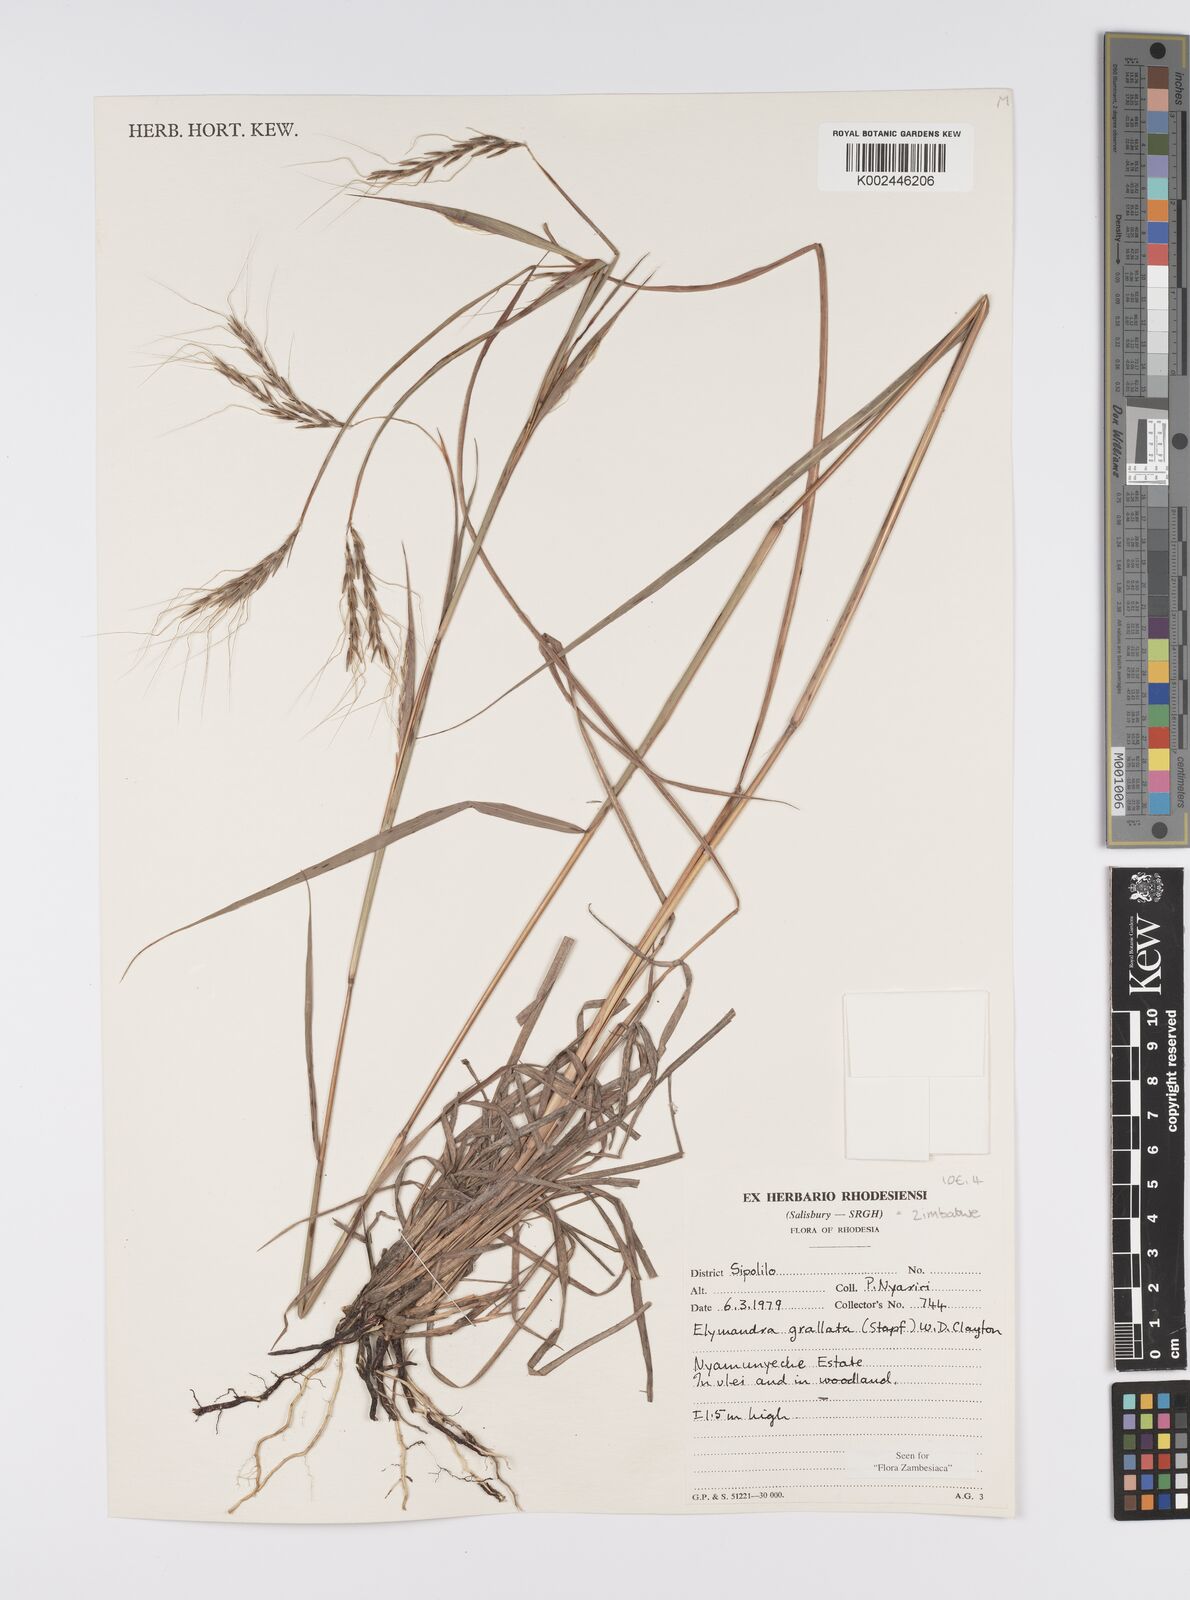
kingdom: Plantae
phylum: Tracheophyta
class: Liliopsida
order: Poales
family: Poaceae
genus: Elymandra
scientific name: Elymandra grallata
